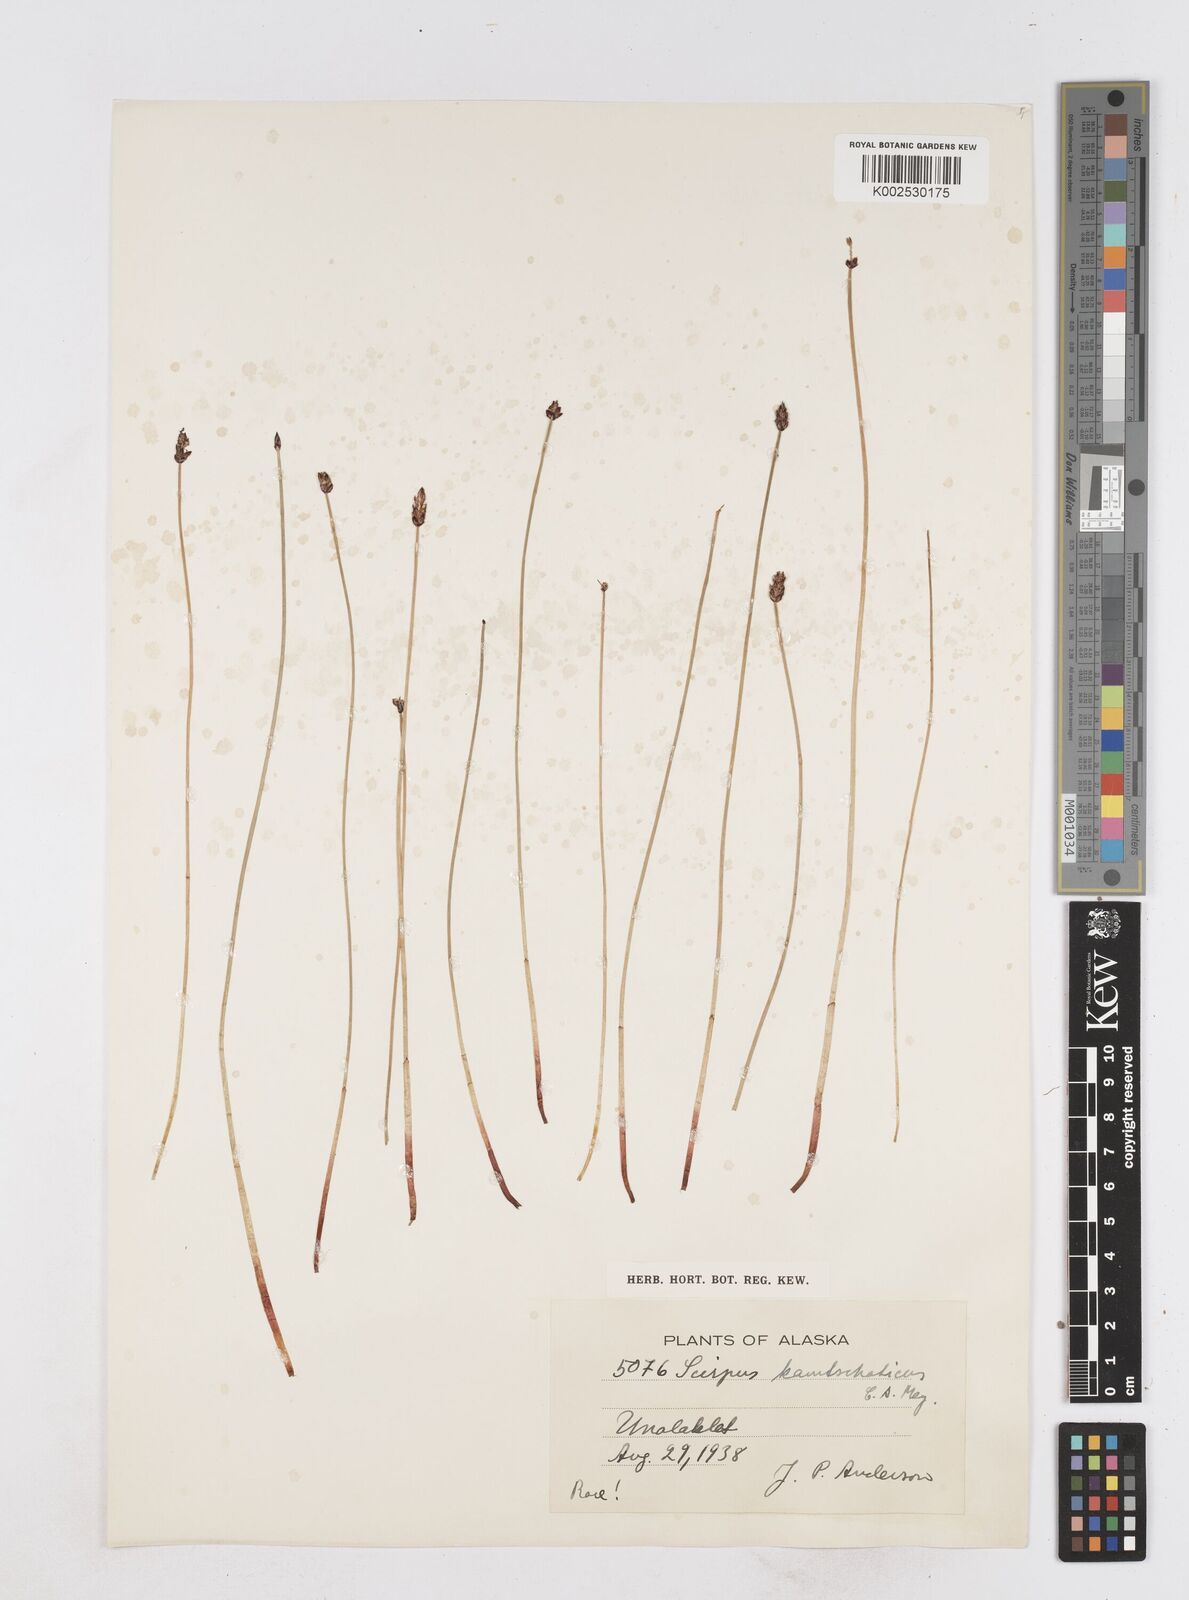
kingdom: Plantae
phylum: Tracheophyta
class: Liliopsida
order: Poales
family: Cyperaceae
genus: Eleocharis
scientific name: Eleocharis kamtschatica
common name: Kamchatka spikerush
